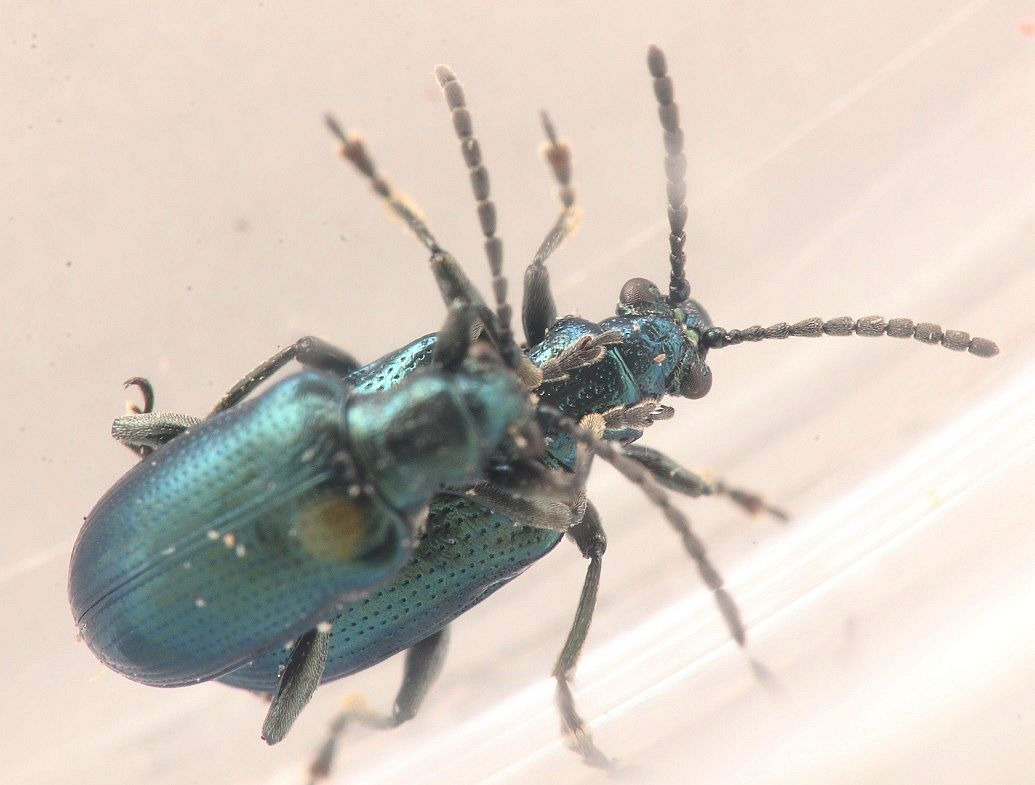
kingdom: Animalia
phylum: Arthropoda
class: Insecta
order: Coleoptera
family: Chrysomelidae
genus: Lema
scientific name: Lema cyanella
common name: Kornguldbille
